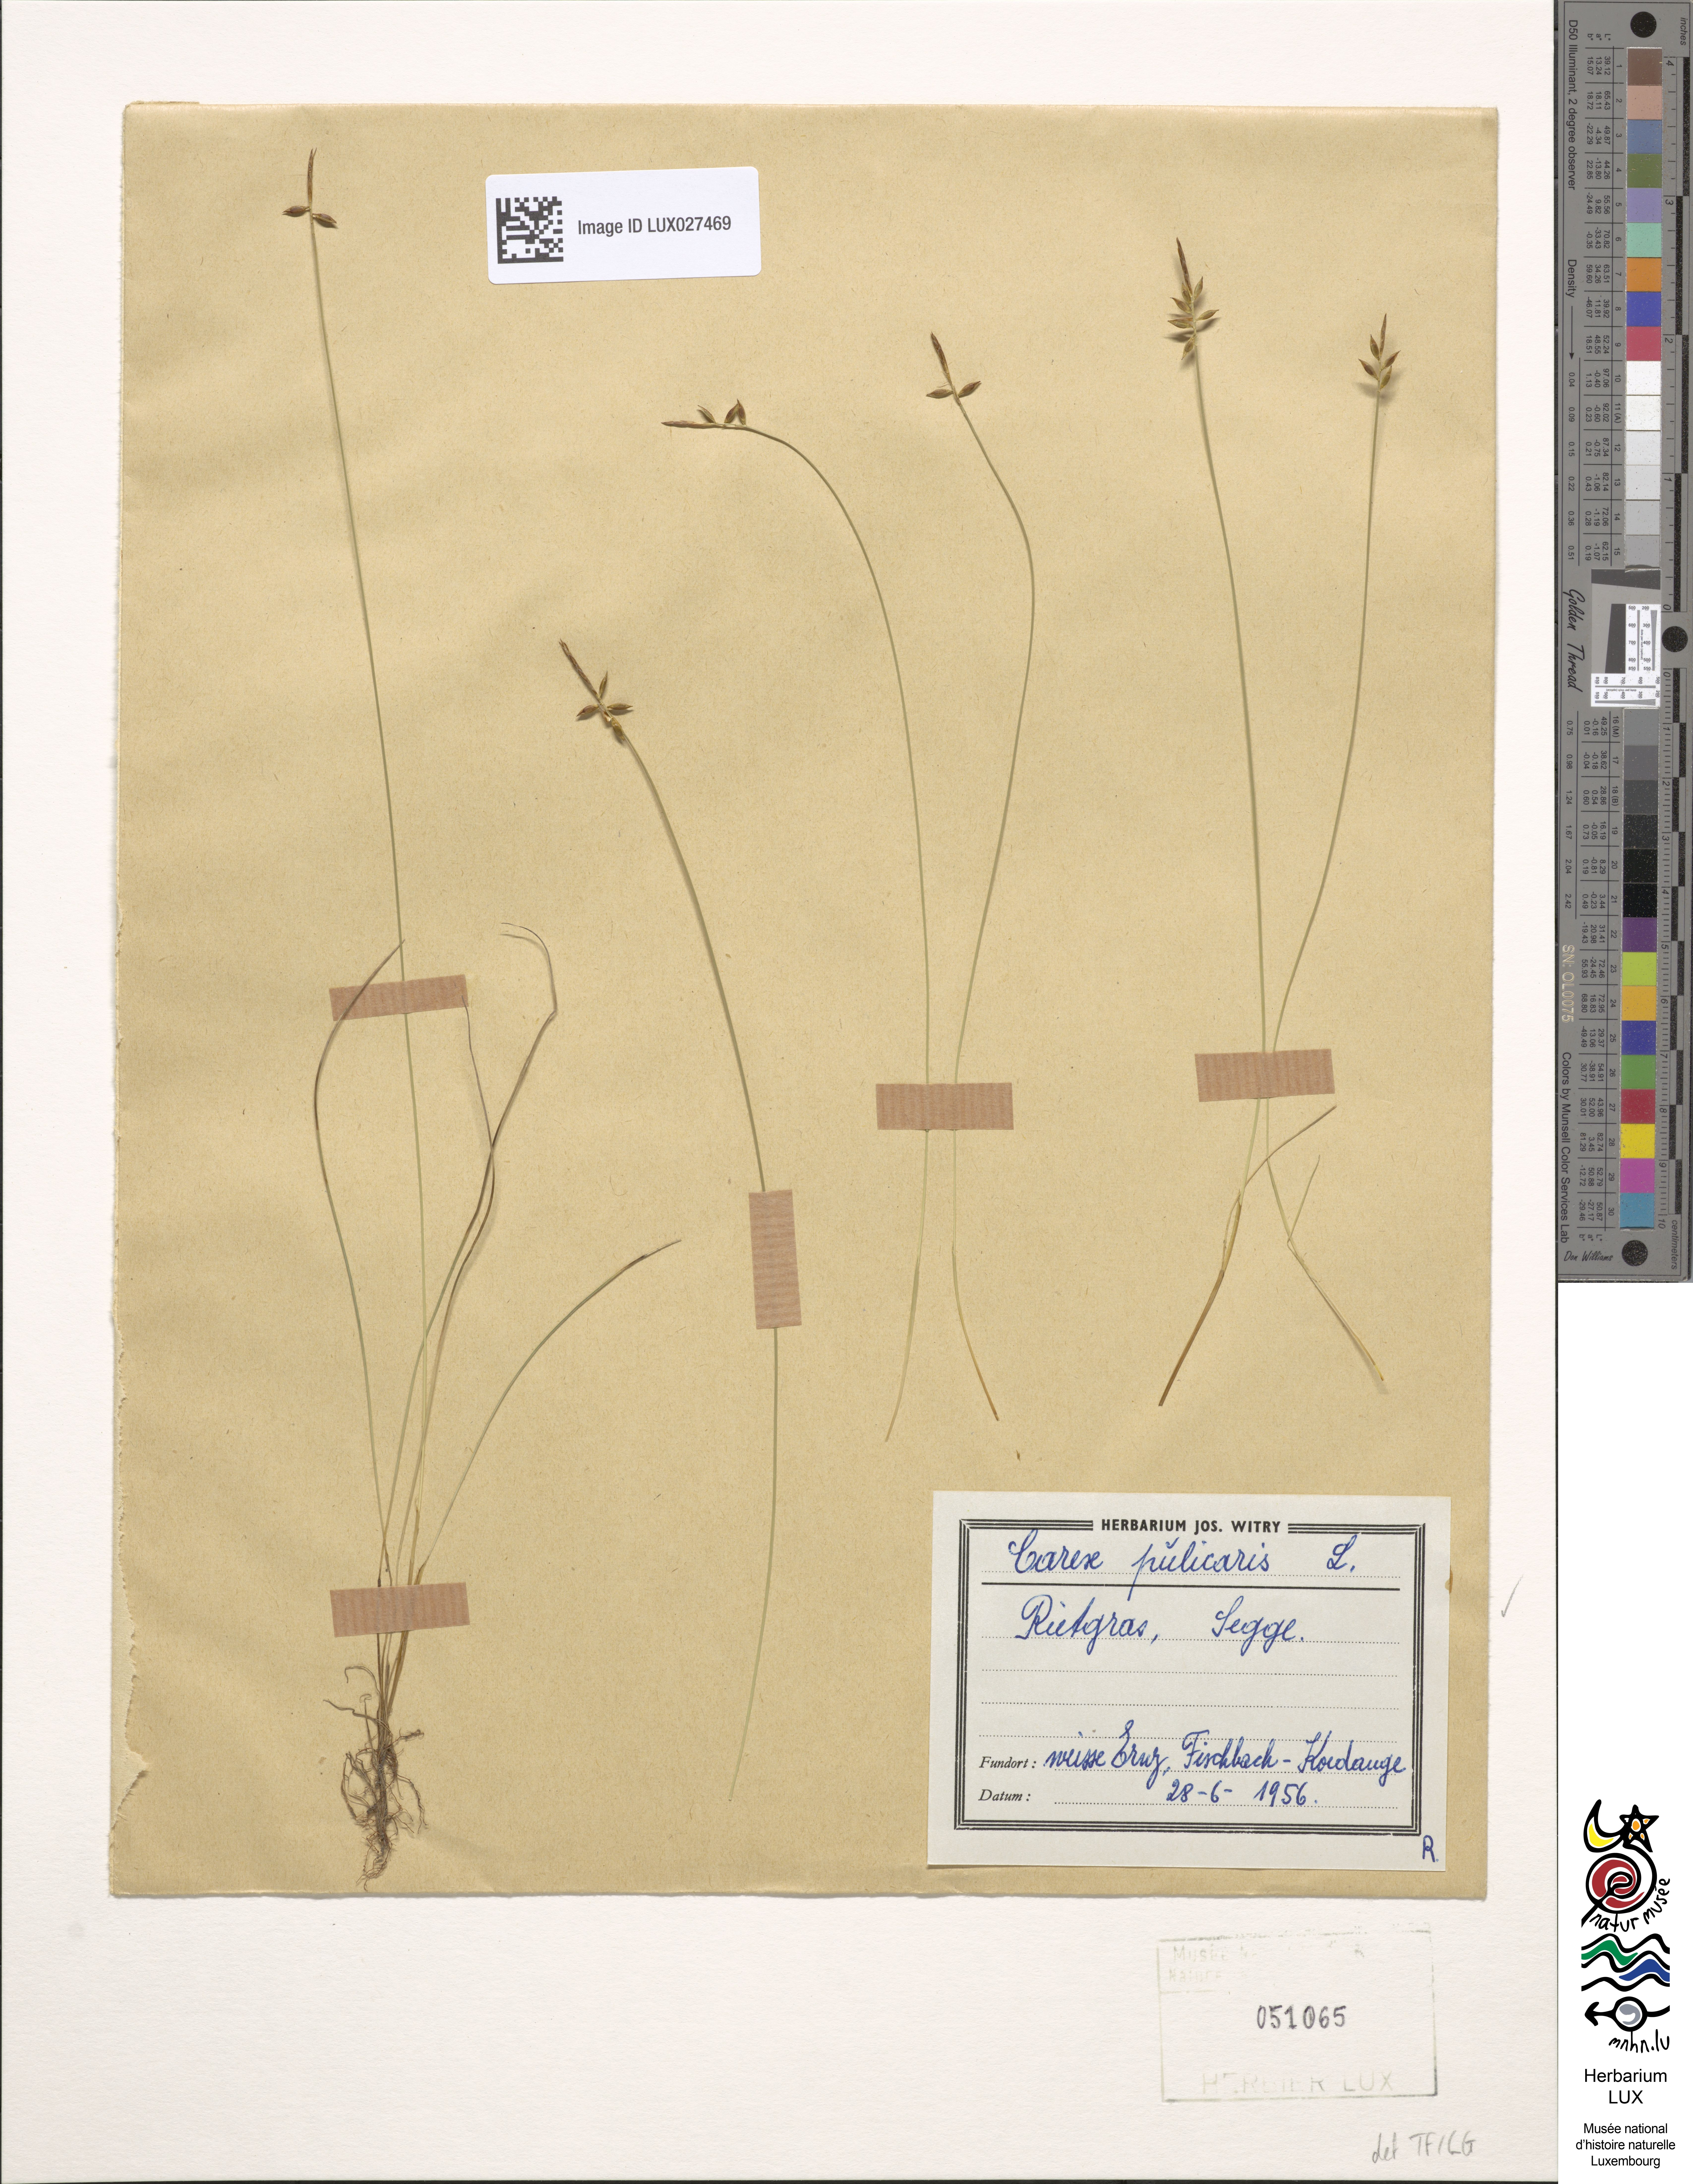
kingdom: Plantae
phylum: Tracheophyta
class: Liliopsida
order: Poales
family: Cyperaceae
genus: Carex
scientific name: Carex pulicaris
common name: Flea sedge
